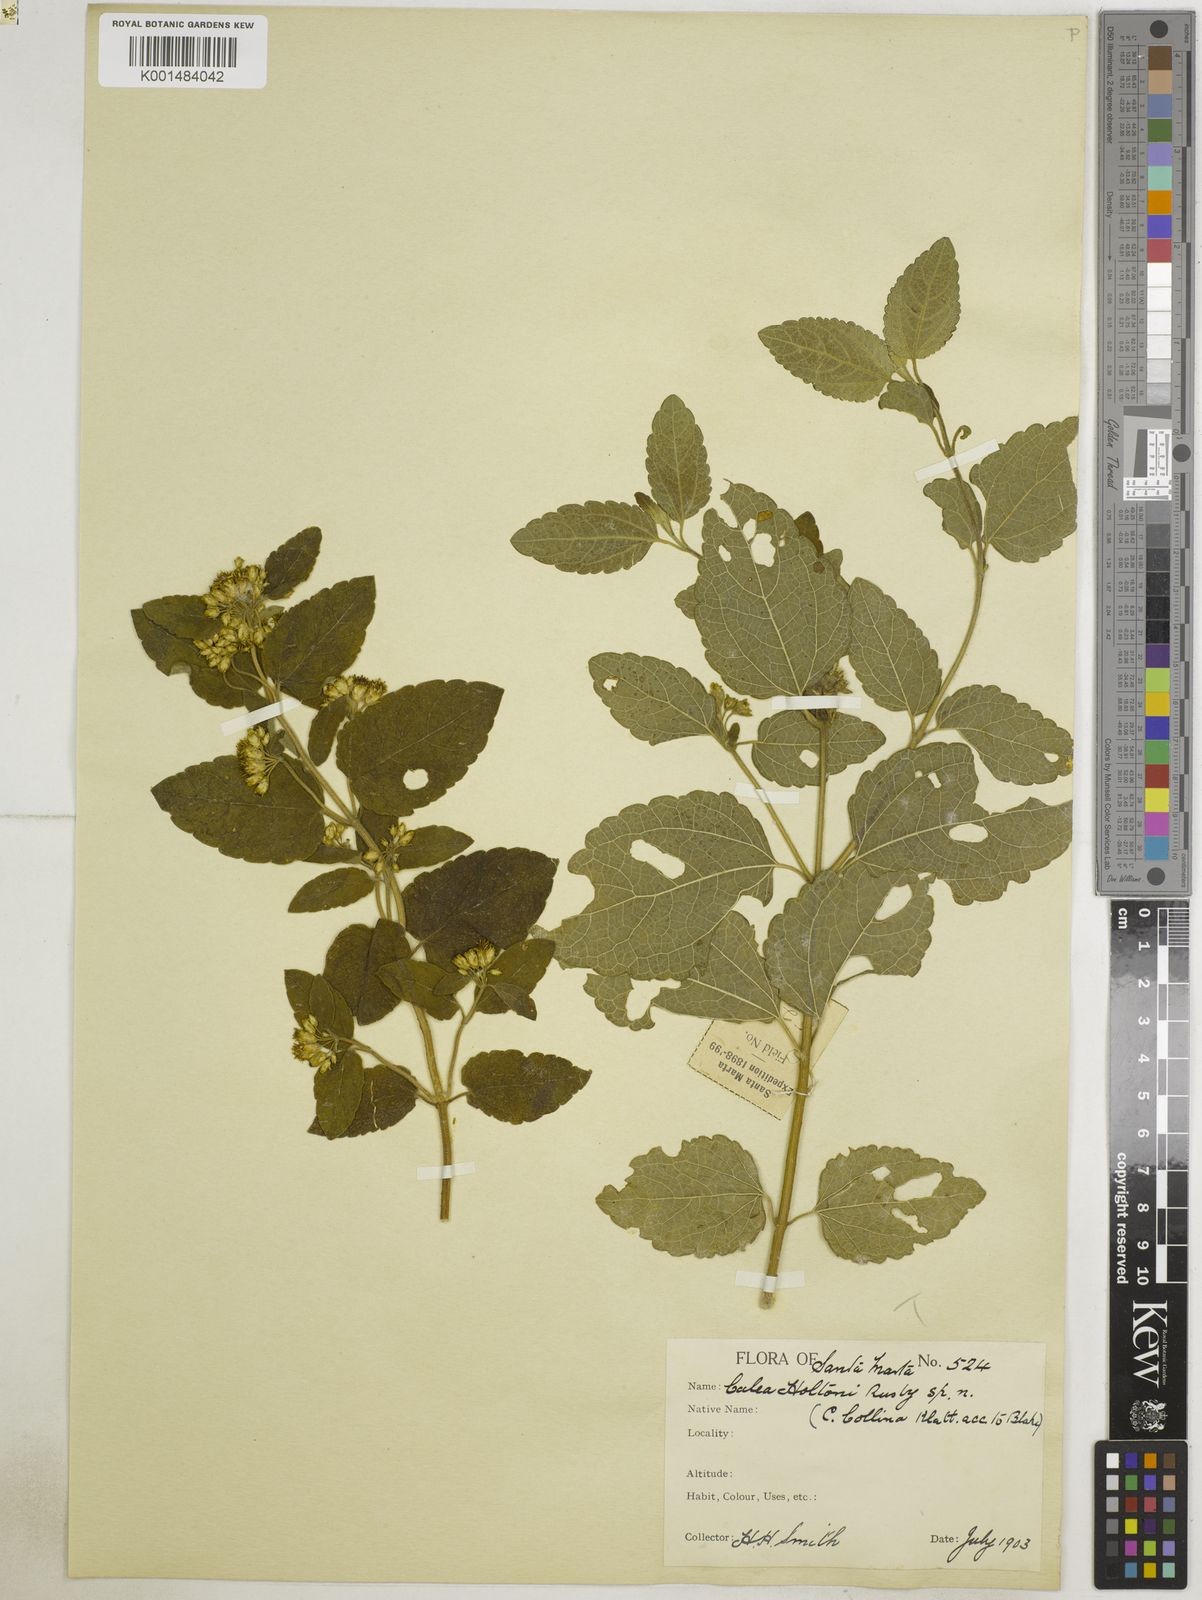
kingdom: Plantae
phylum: Tracheophyta
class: Magnoliopsida
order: Asterales
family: Asteraceae
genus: Calea
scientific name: Calea berteriana
